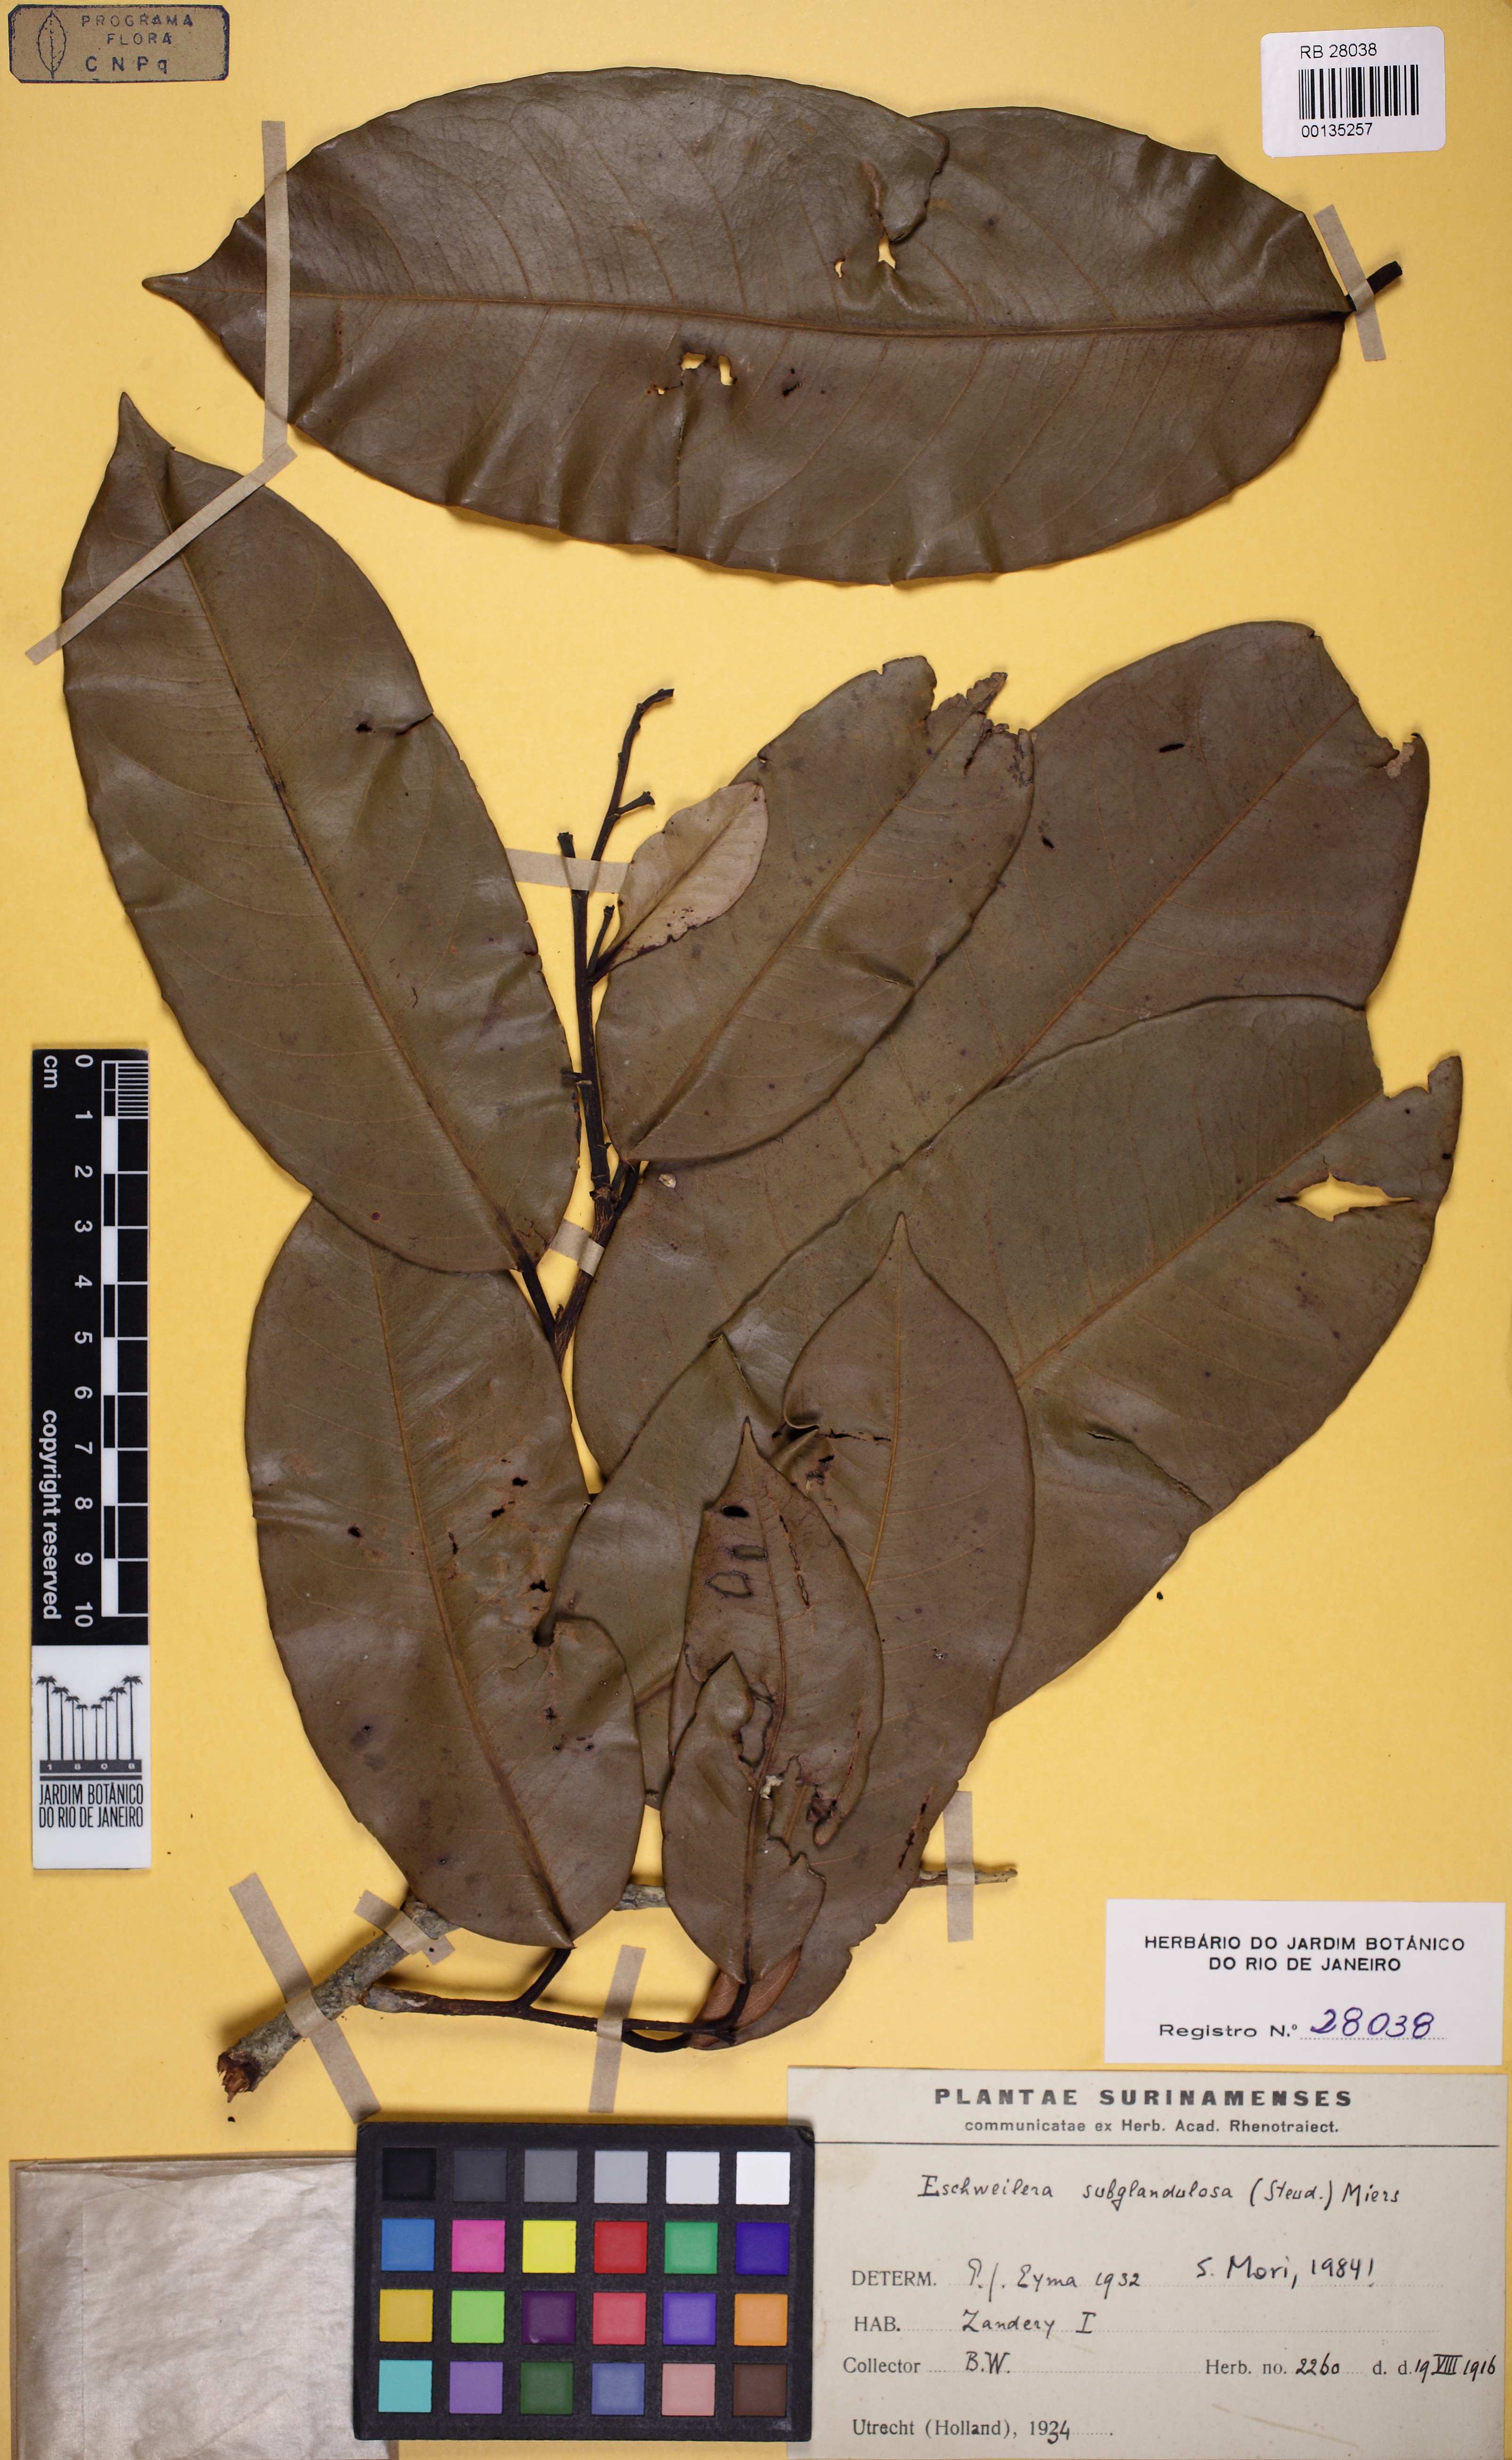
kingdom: Plantae
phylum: Tracheophyta
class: Magnoliopsida
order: Ericales
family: Lecythidaceae
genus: Eschweilera
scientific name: Eschweilera subglandulosa
